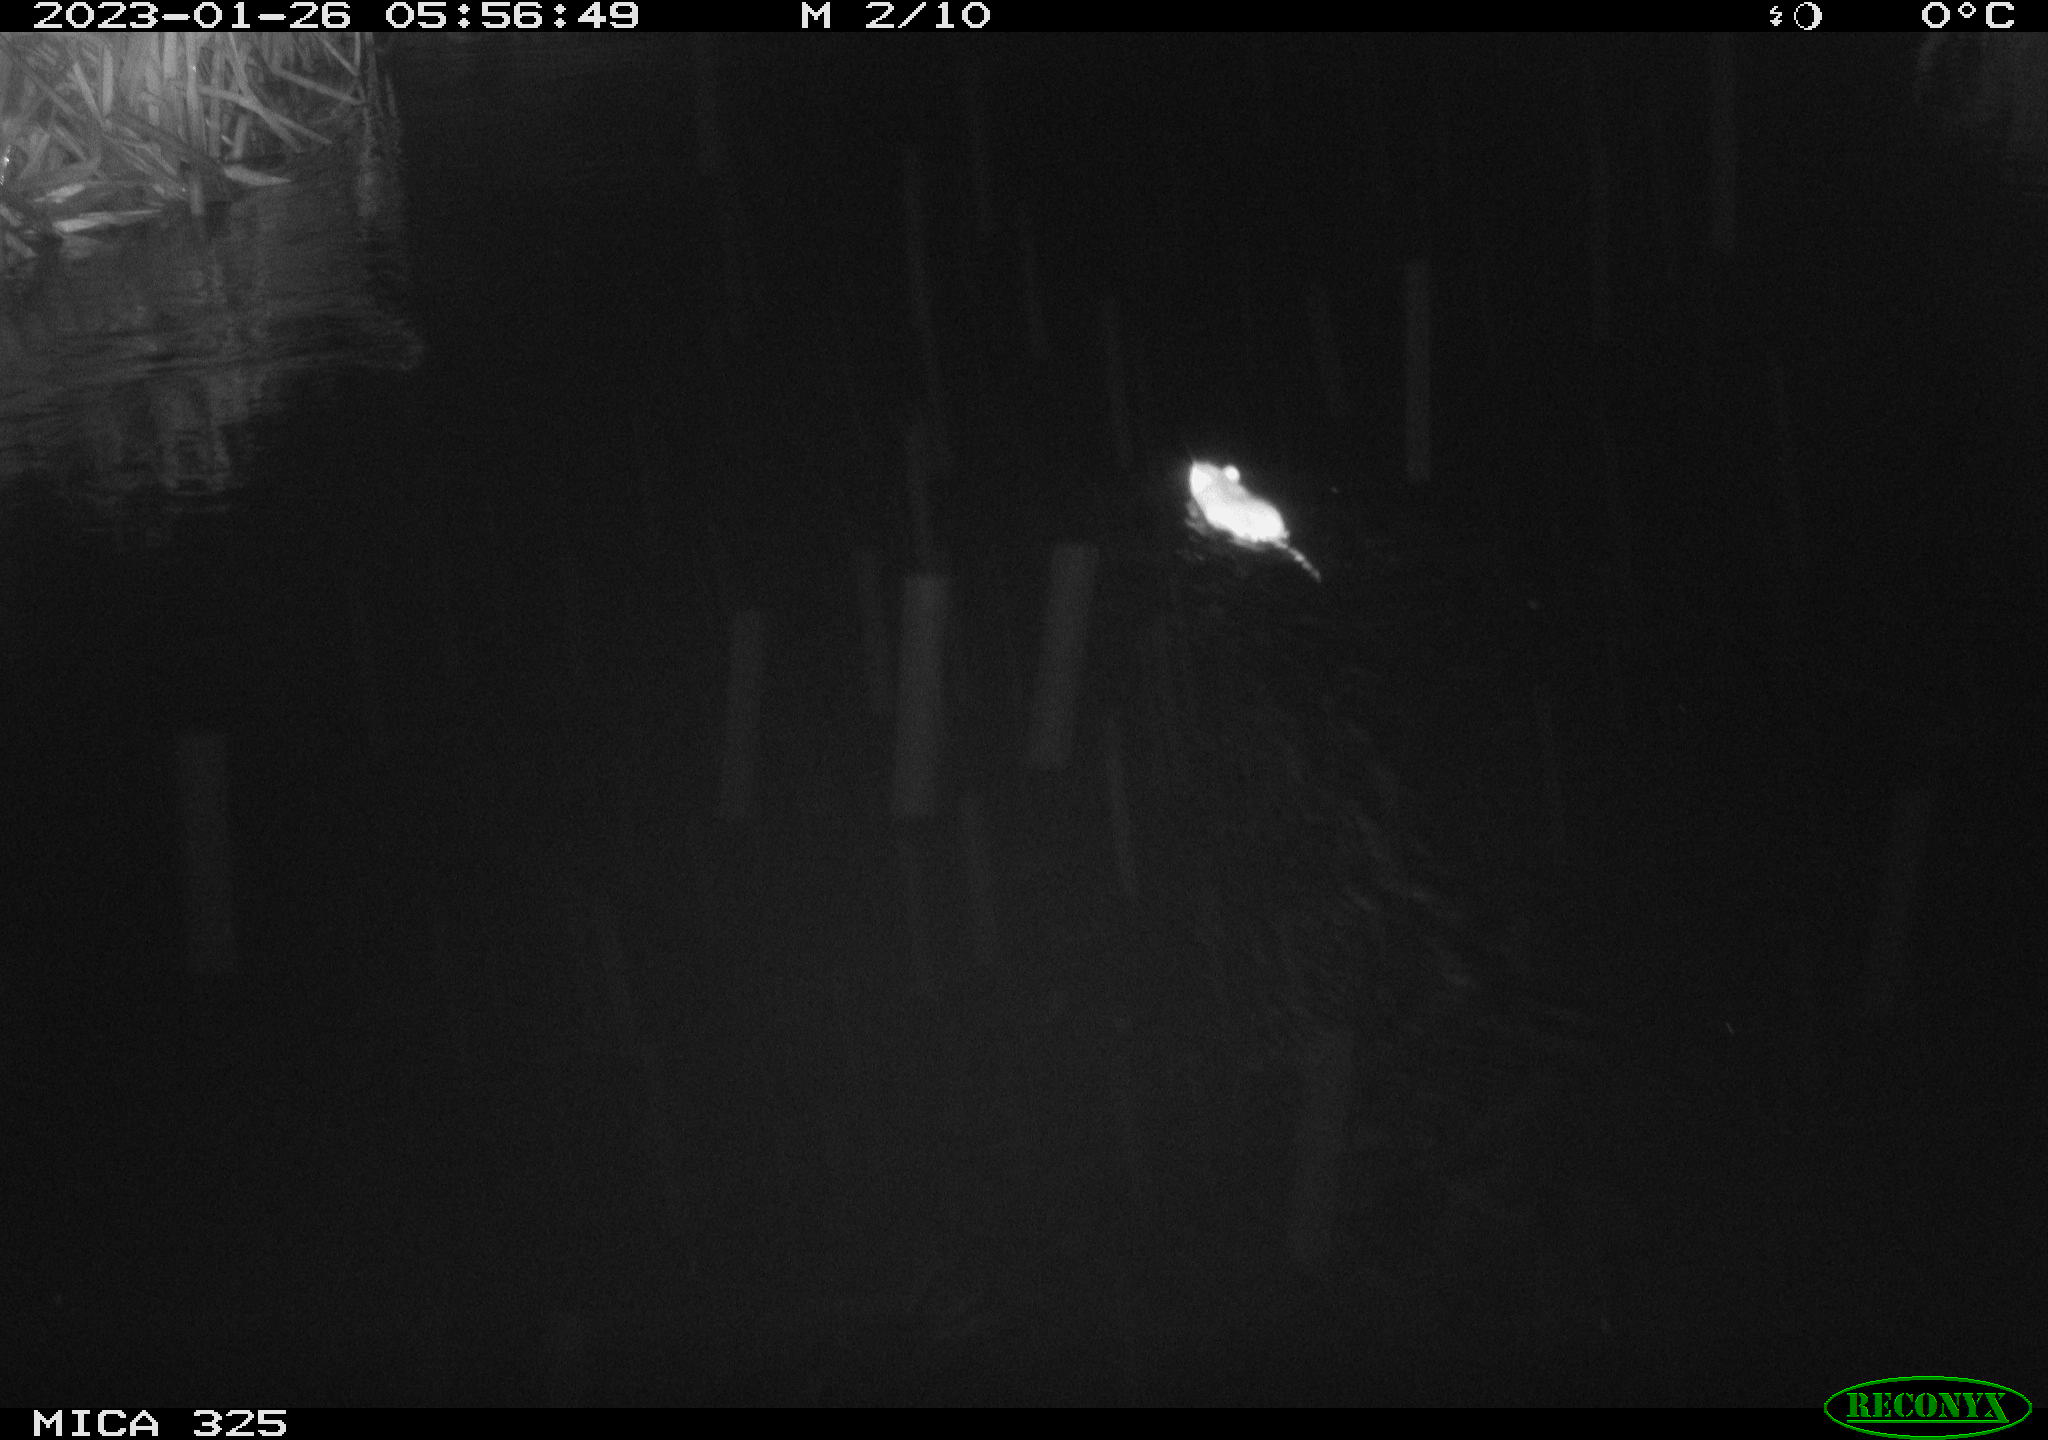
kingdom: Animalia
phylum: Chordata
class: Mammalia
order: Rodentia
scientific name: Rodentia
